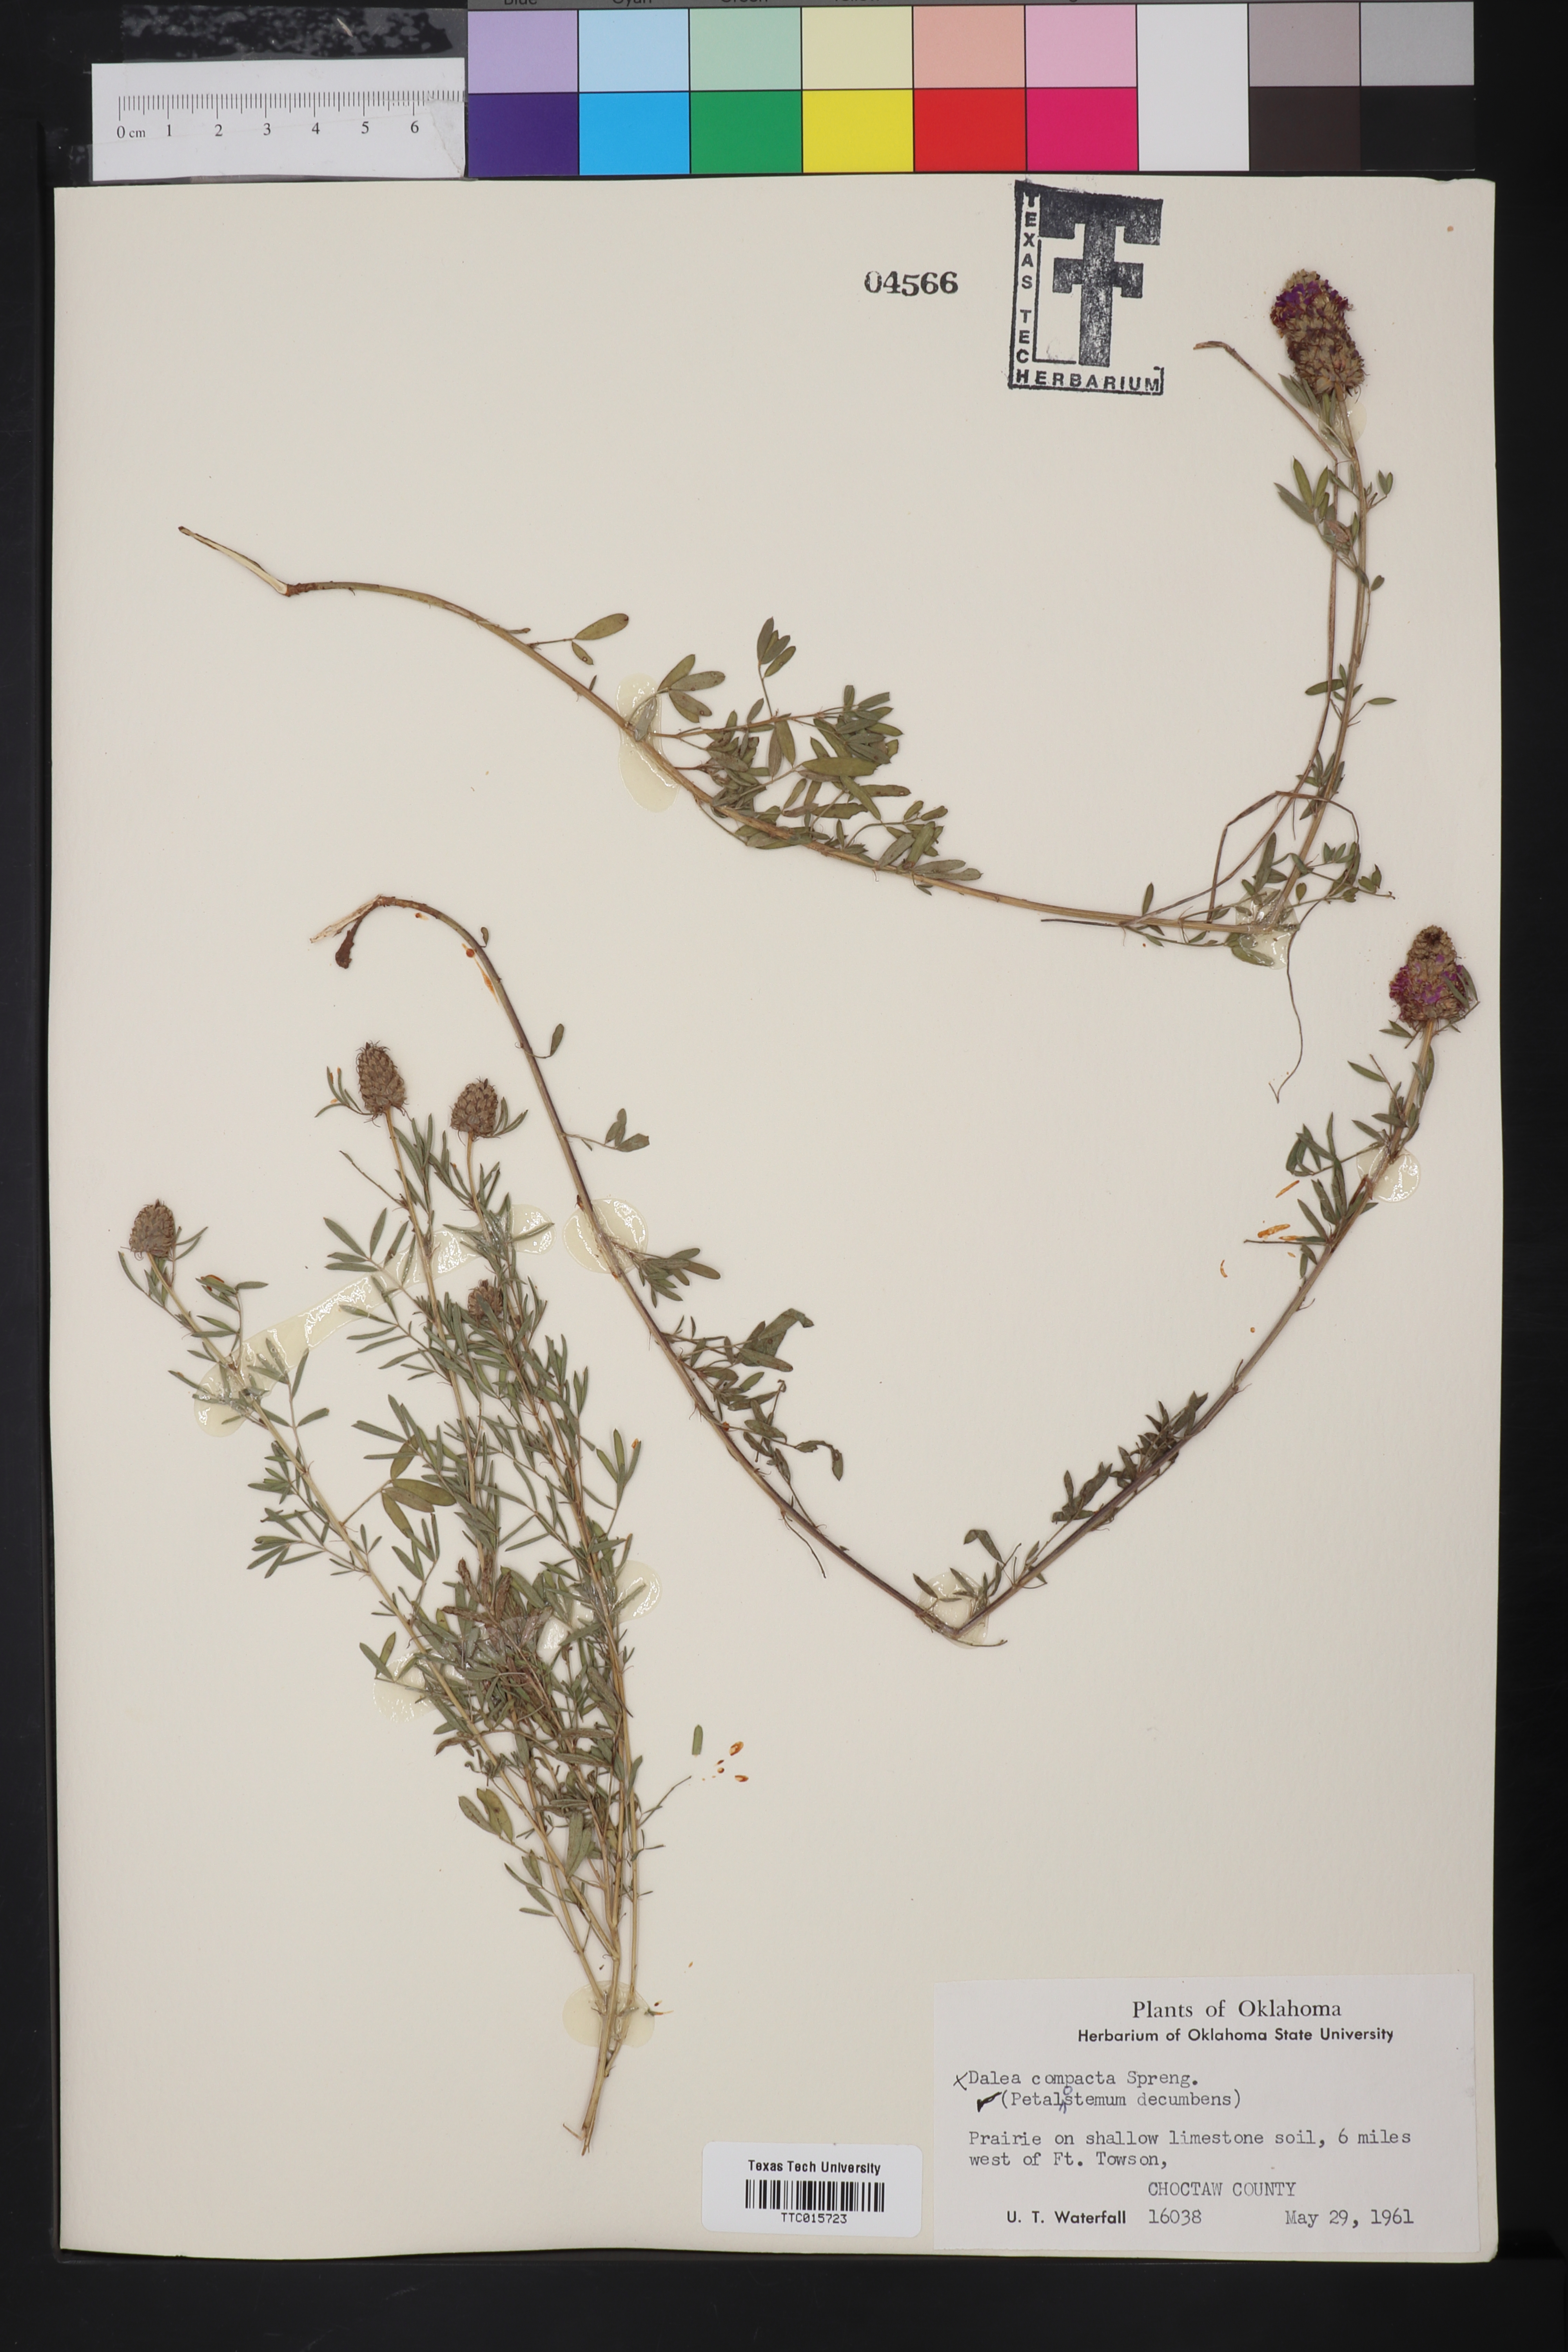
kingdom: Plantae
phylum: Tracheophyta
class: Magnoliopsida
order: Fabales
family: Fabaceae
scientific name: Fabaceae
